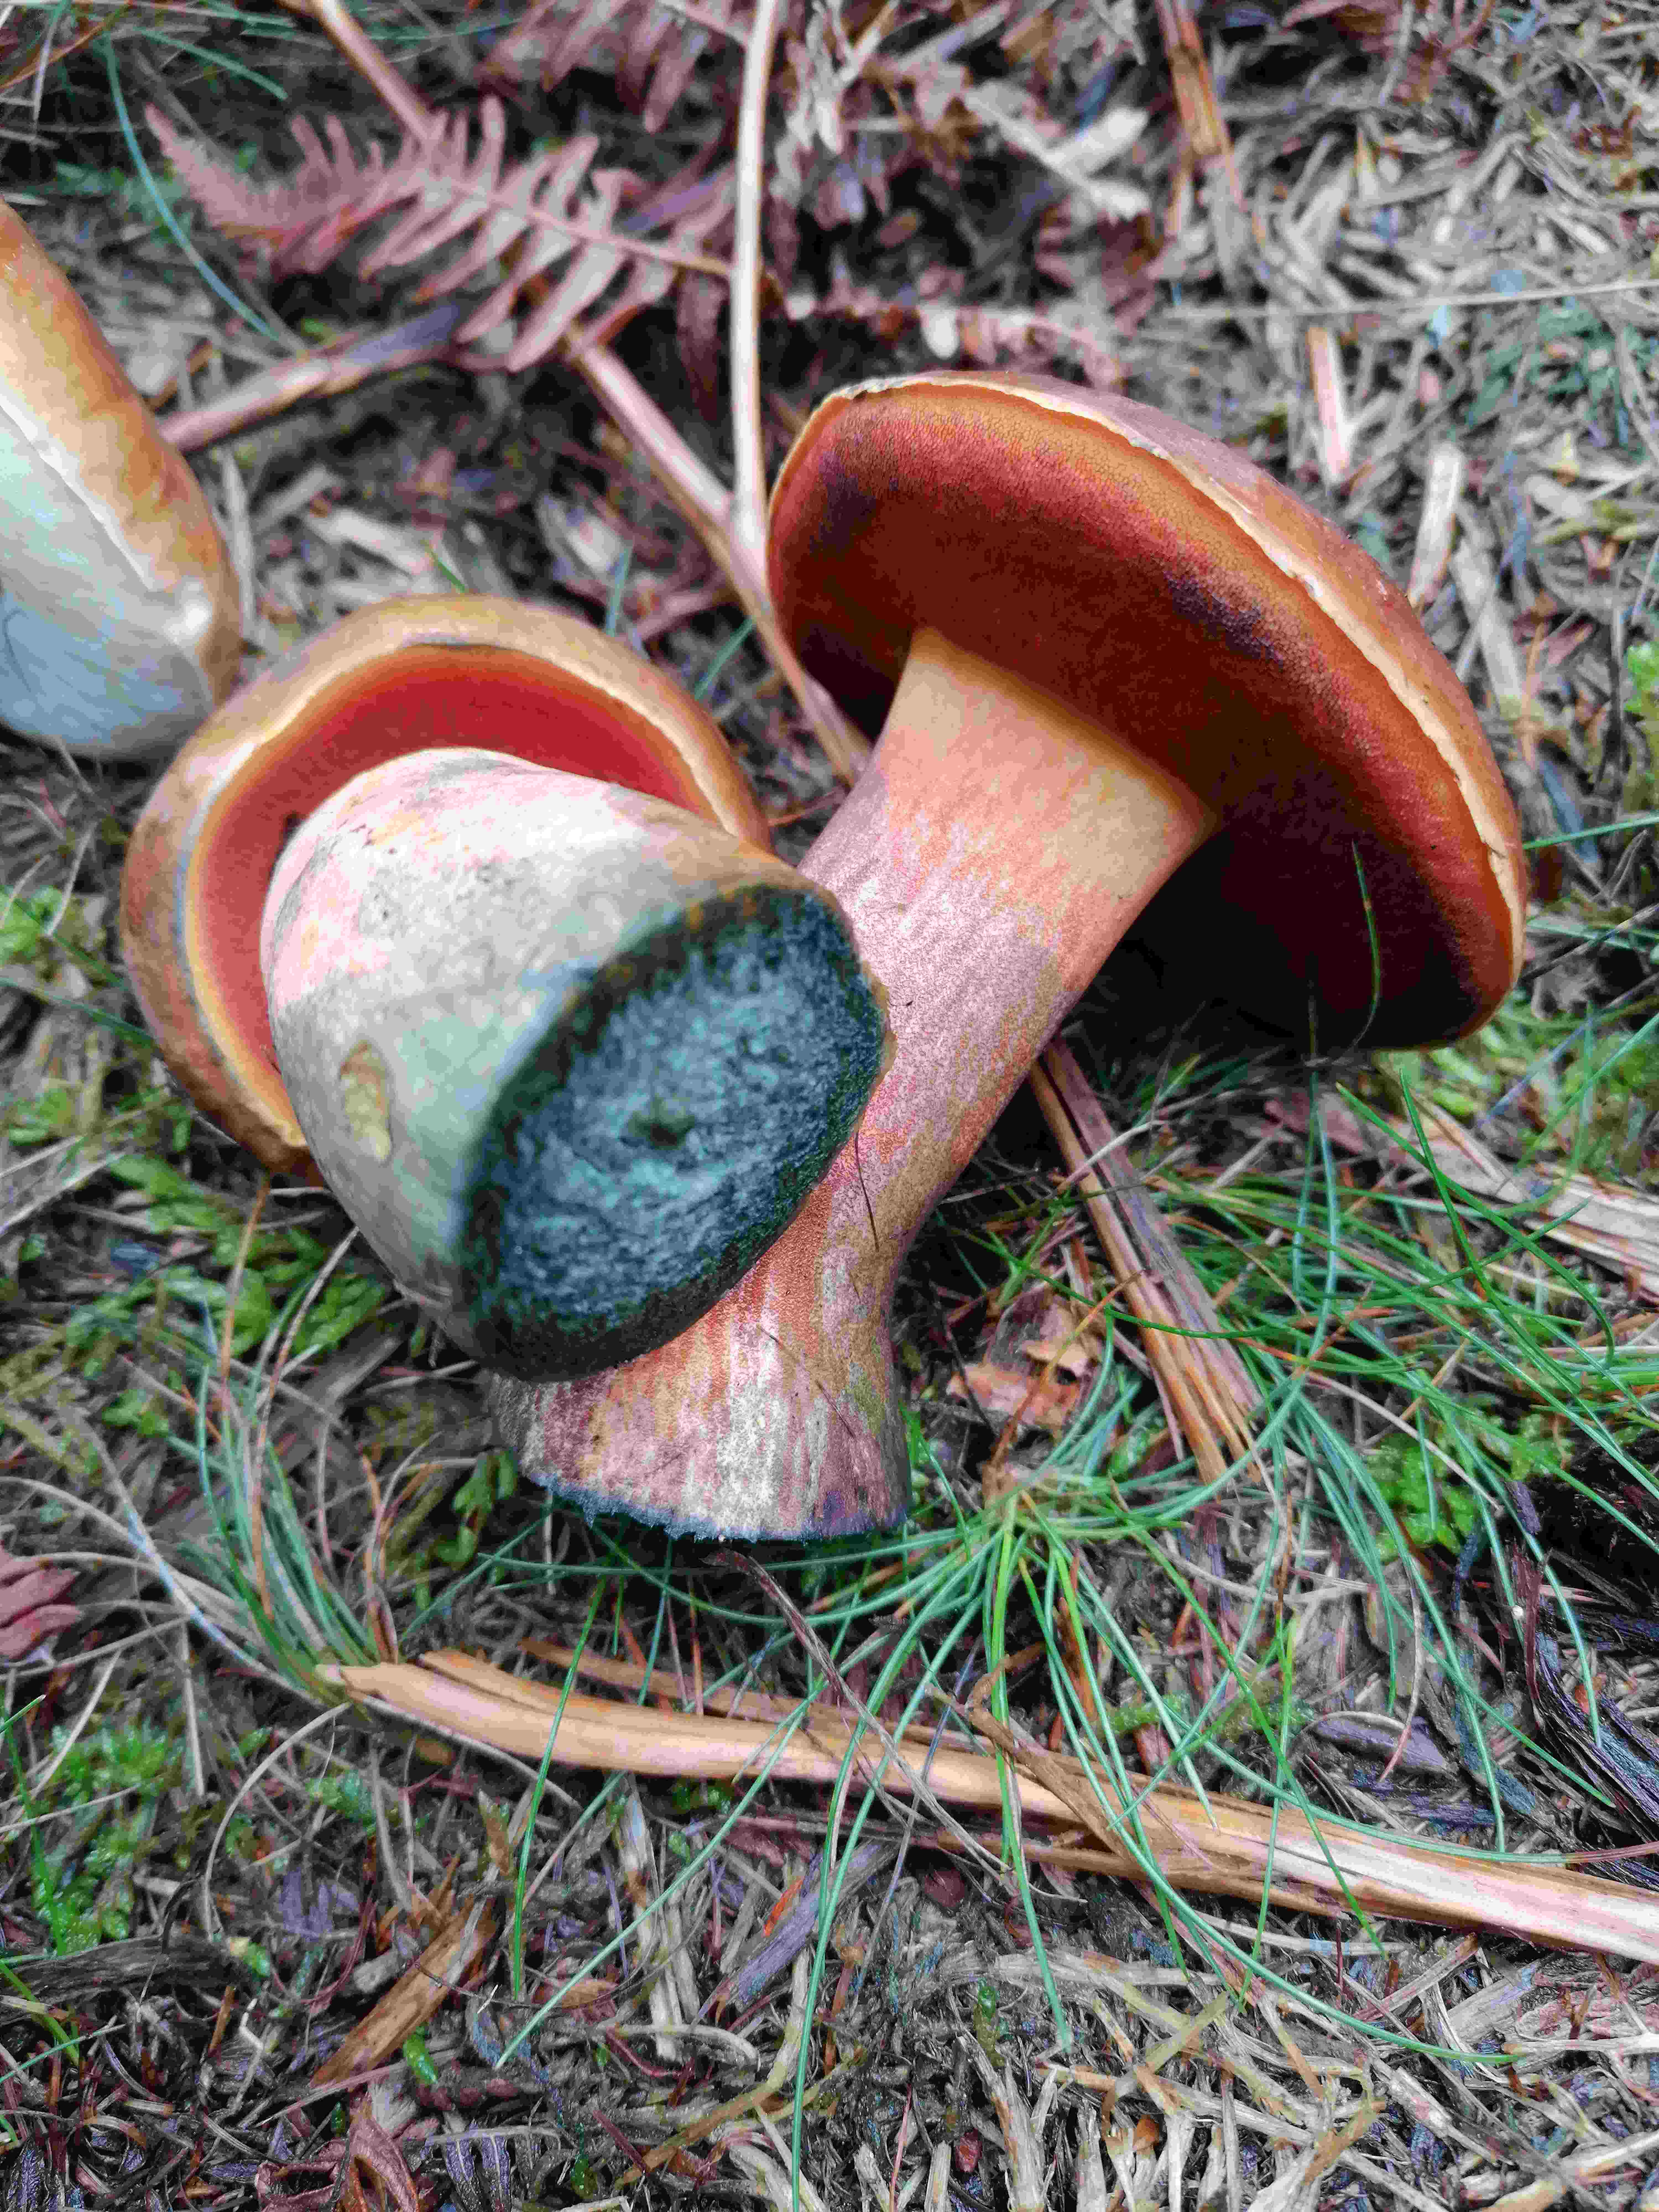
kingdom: Fungi
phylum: Basidiomycota
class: Agaricomycetes
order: Boletales
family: Boletaceae
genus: Neoboletus
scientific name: Neoboletus erythropus
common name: punktstokket indigorørhat
